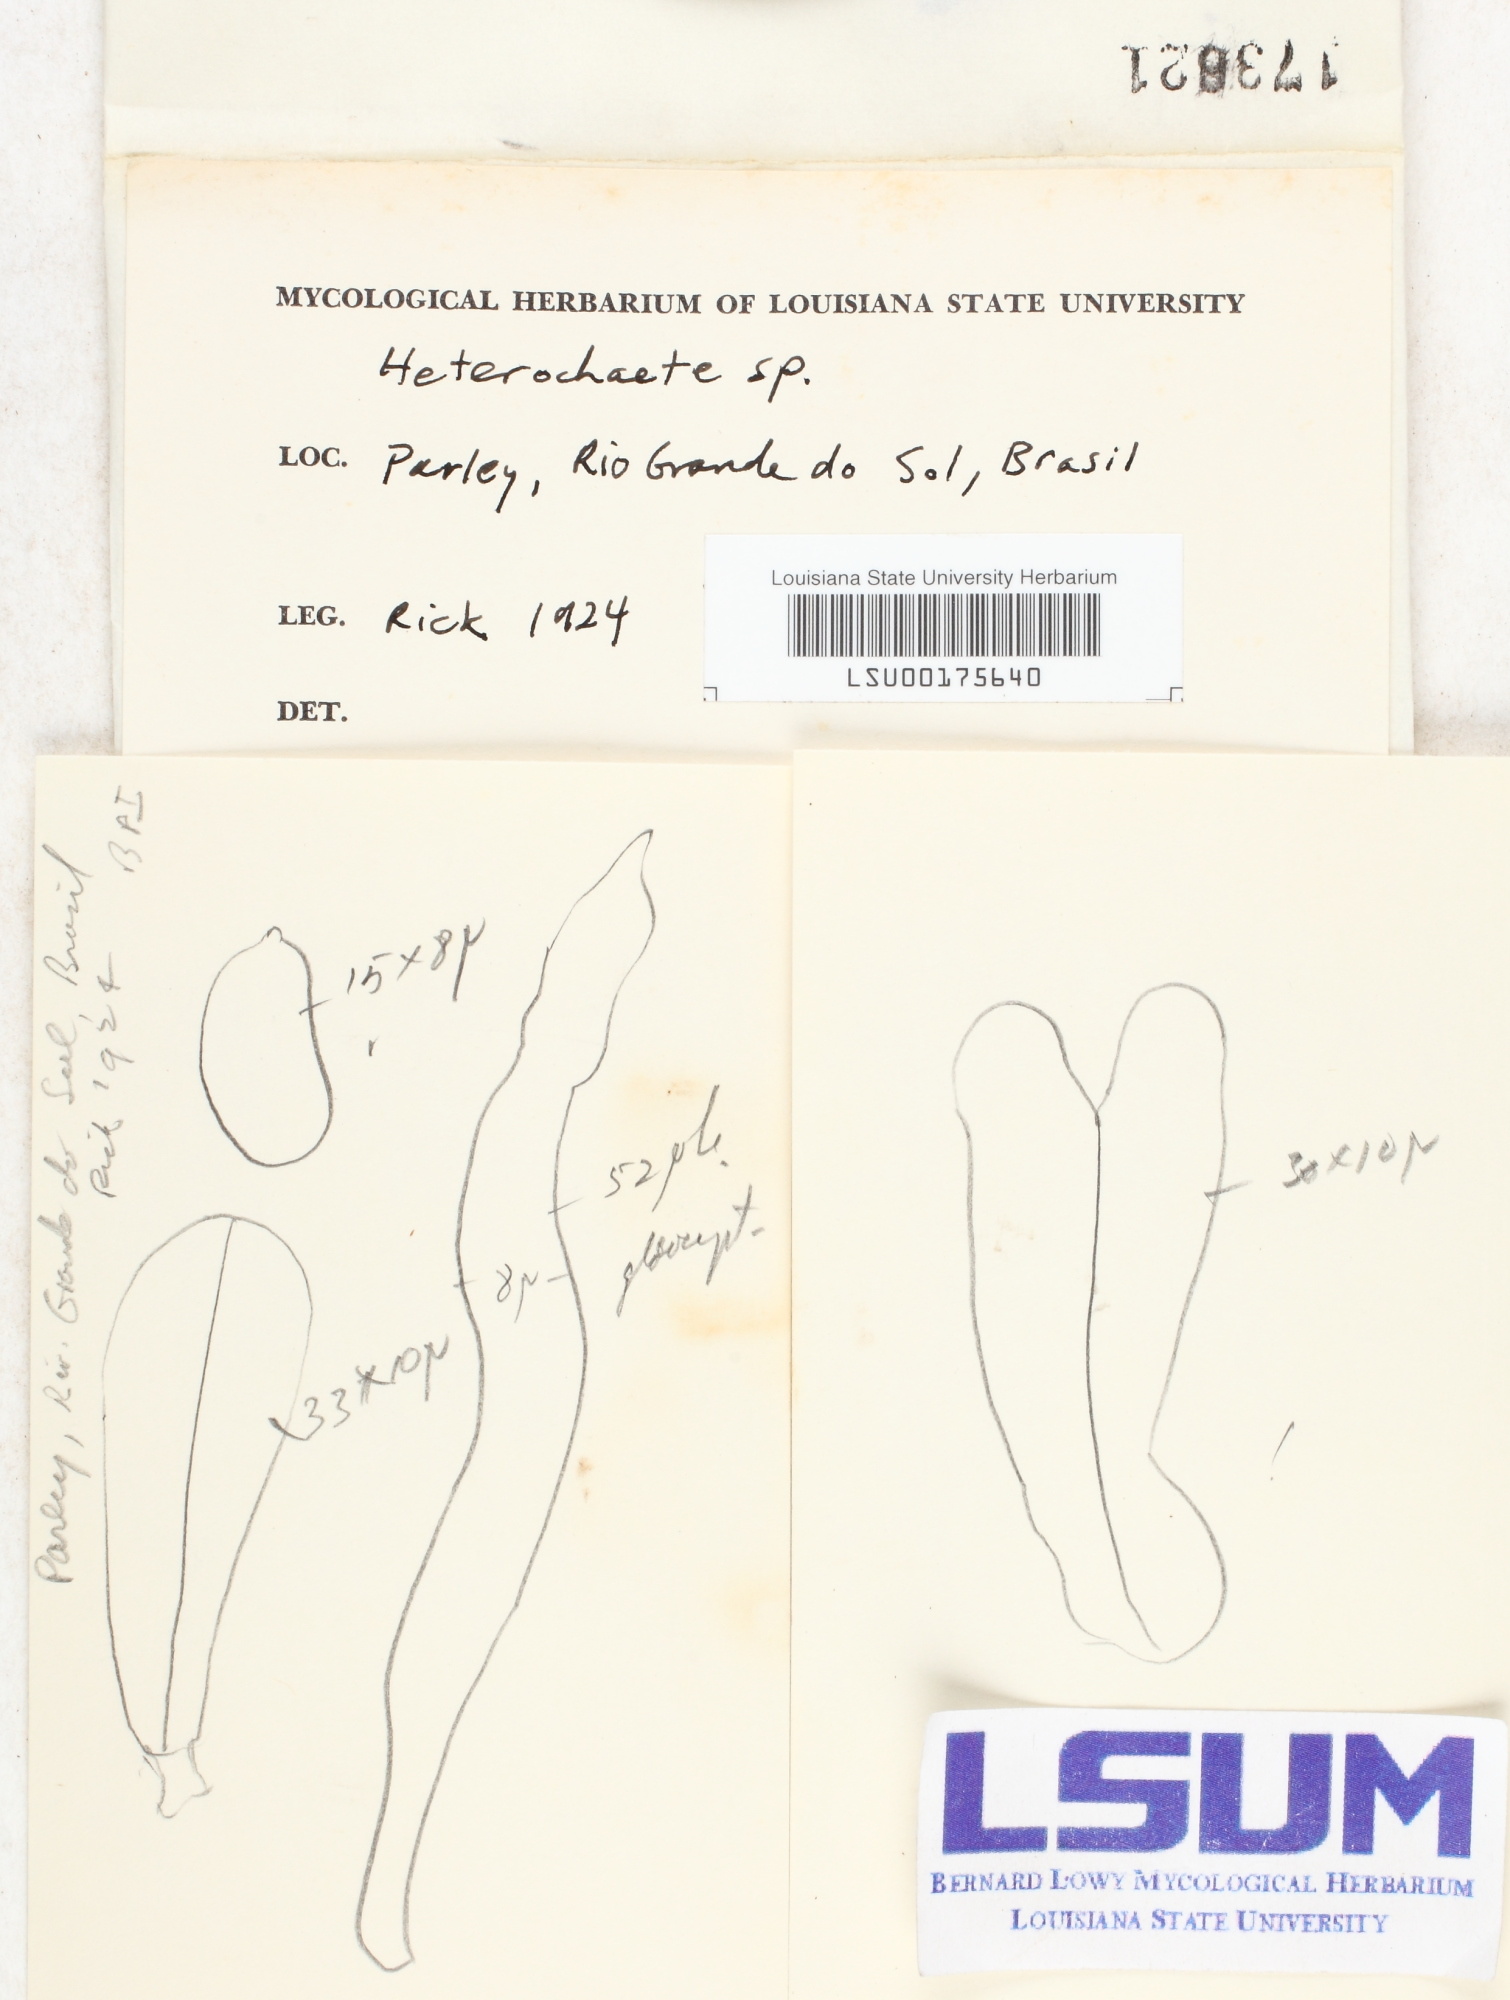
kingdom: Fungi
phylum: Basidiomycota
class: Agaricomycetes
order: Auriculariales
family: Auriculariaceae
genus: Heterochaete
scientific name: Heterochaete
